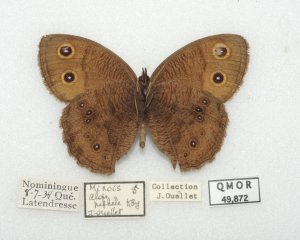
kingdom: Animalia
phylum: Arthropoda
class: Insecta
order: Lepidoptera
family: Nymphalidae
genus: Cercyonis
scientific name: Cercyonis pegala
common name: Common Wood-Nymph
